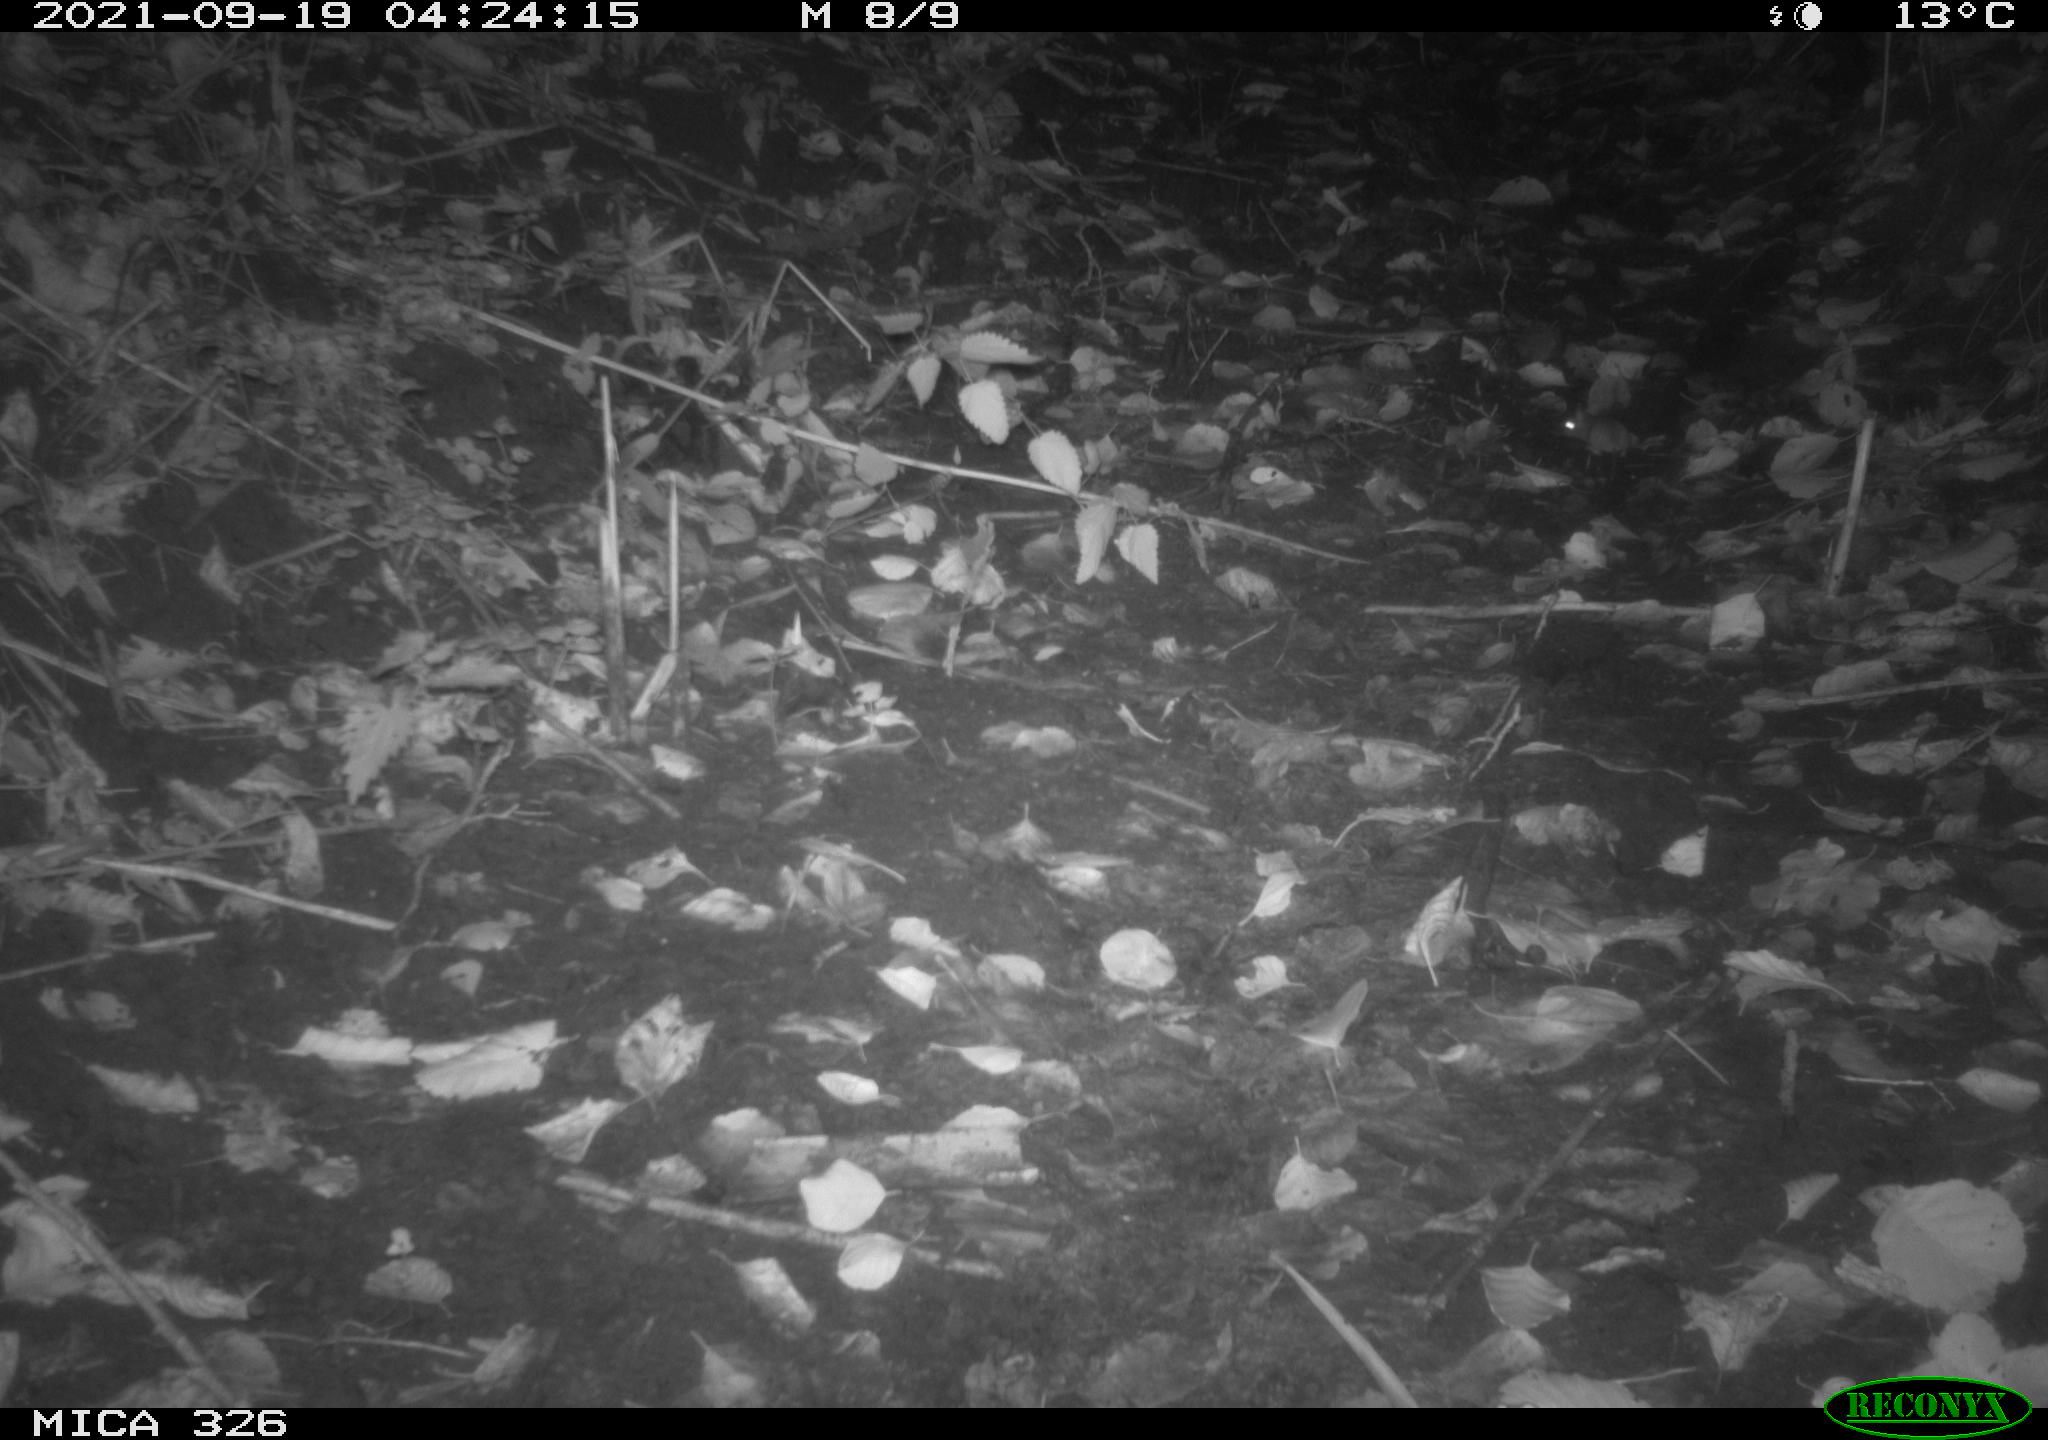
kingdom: Animalia
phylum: Chordata
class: Mammalia
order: Rodentia
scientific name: Rodentia
